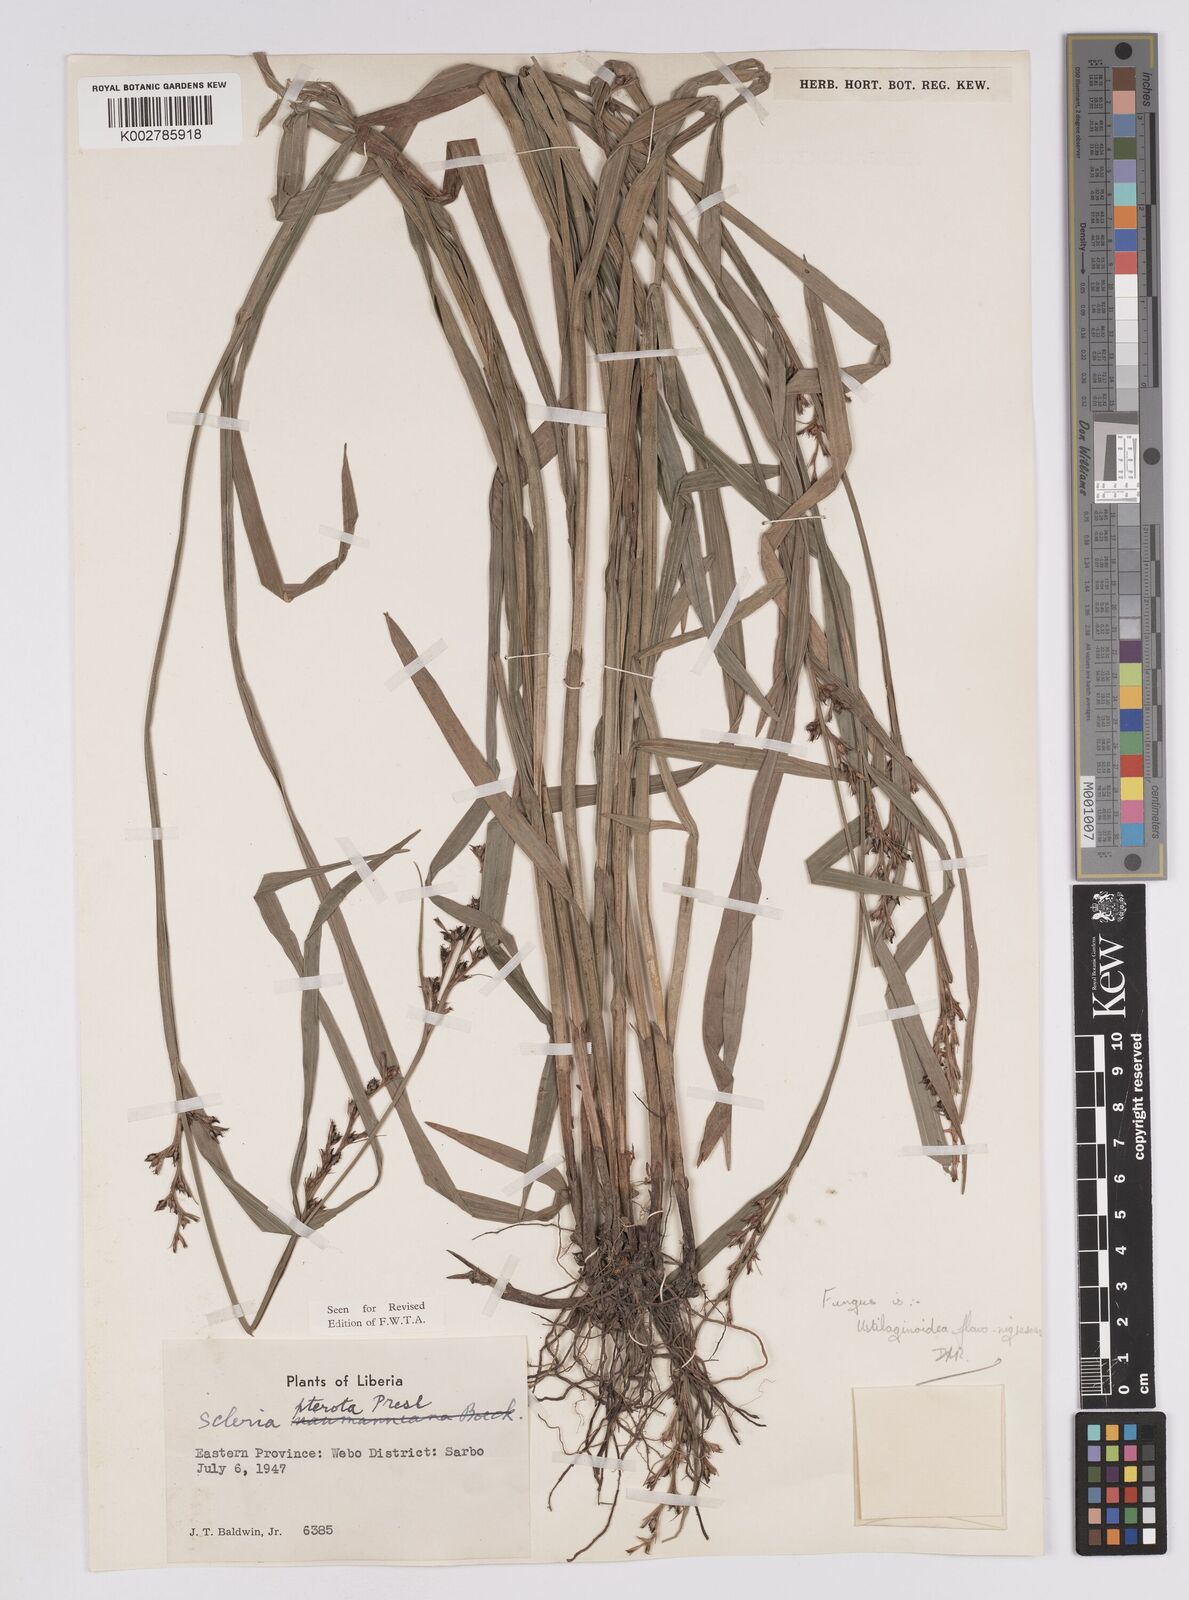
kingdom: Plantae
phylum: Tracheophyta
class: Liliopsida
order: Poales
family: Cyperaceae
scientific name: Cyperaceae
